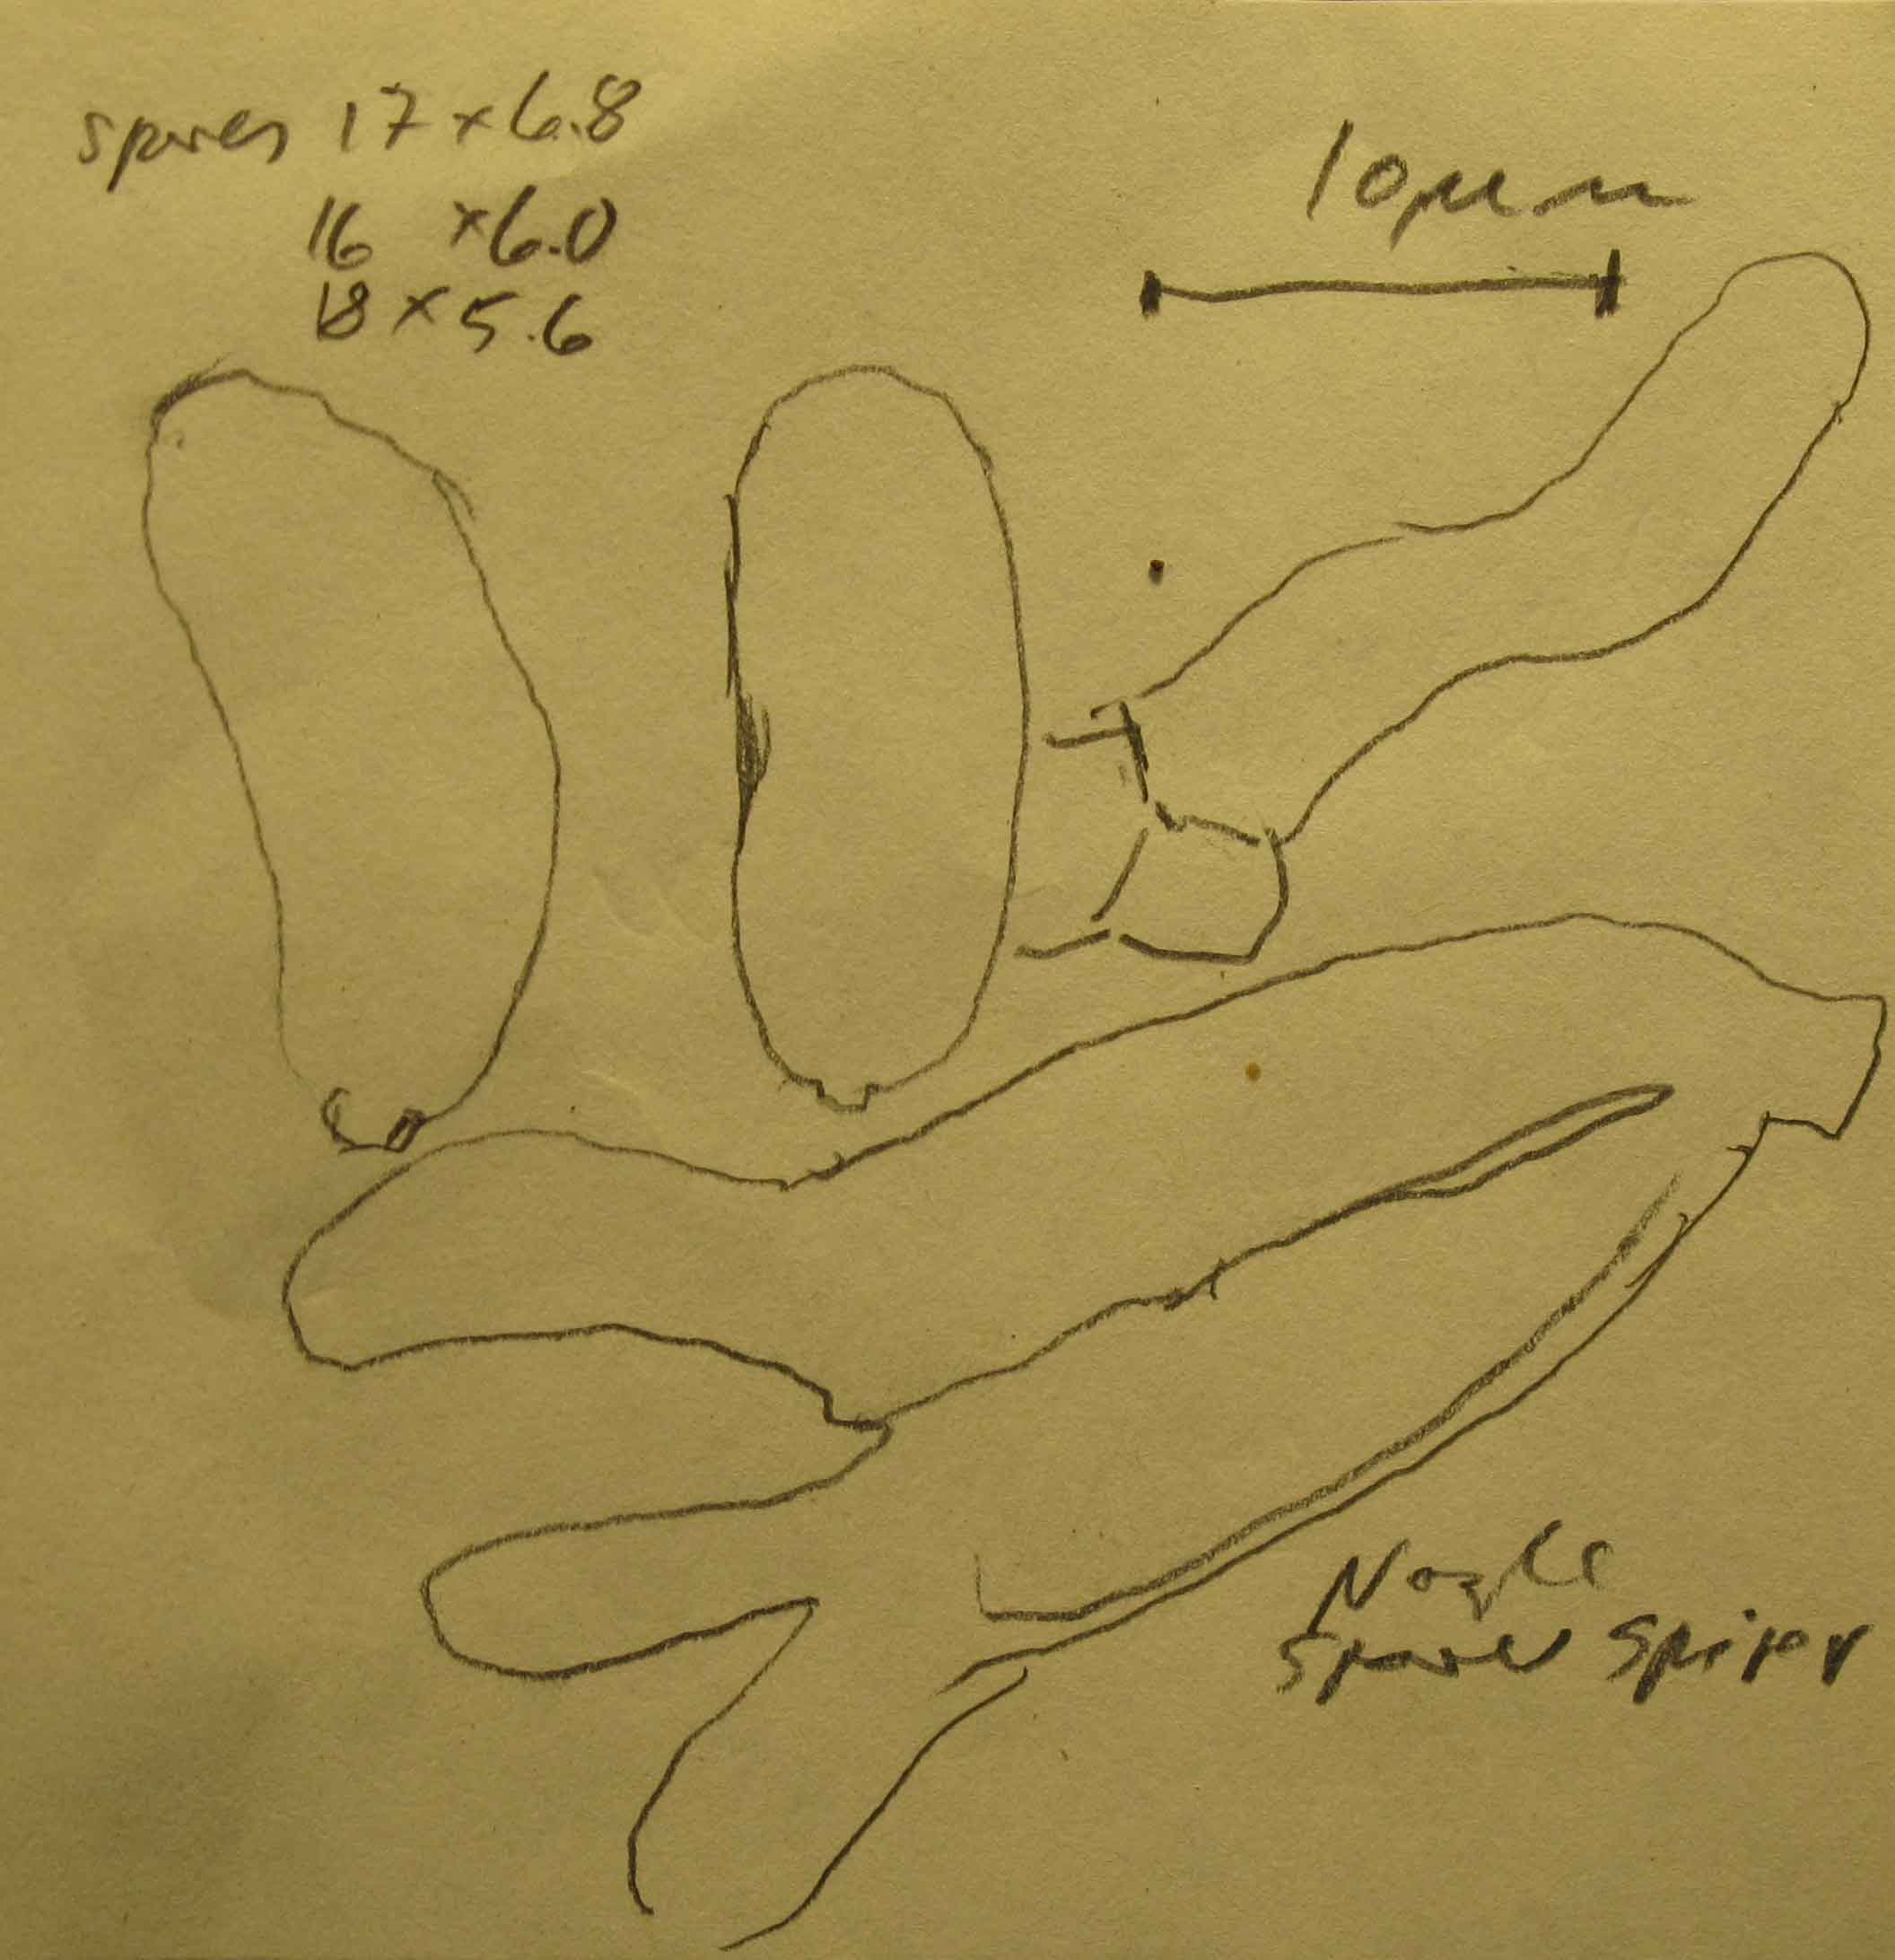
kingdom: Fungi
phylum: Basidiomycota
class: Tremellomycetes
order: Tremellales
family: Exidiaceae
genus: Exidiopsis
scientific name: Exidiopsis effusa
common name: smuk bævrehinde
